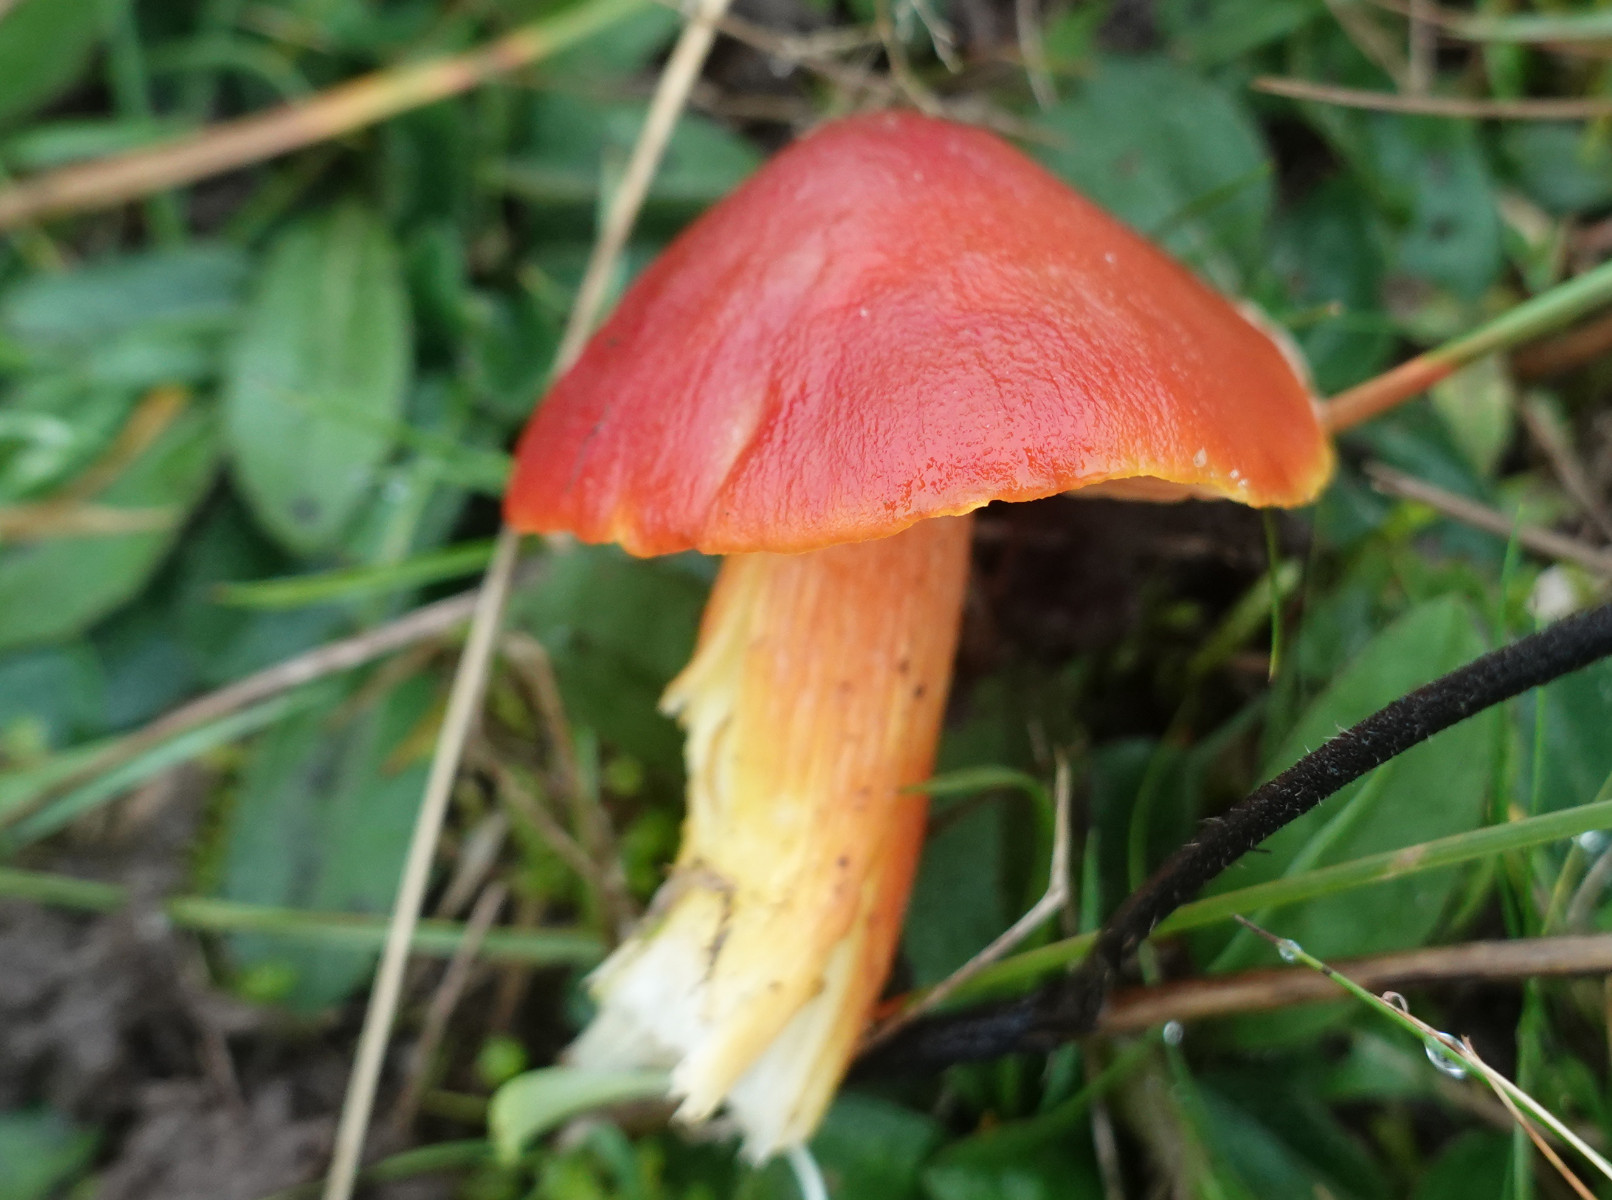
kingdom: Fungi
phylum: Basidiomycota
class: Agaricomycetes
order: Agaricales
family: Hygrophoraceae
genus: Hygrocybe
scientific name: Hygrocybe punicea
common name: skarlagen-vokshat
